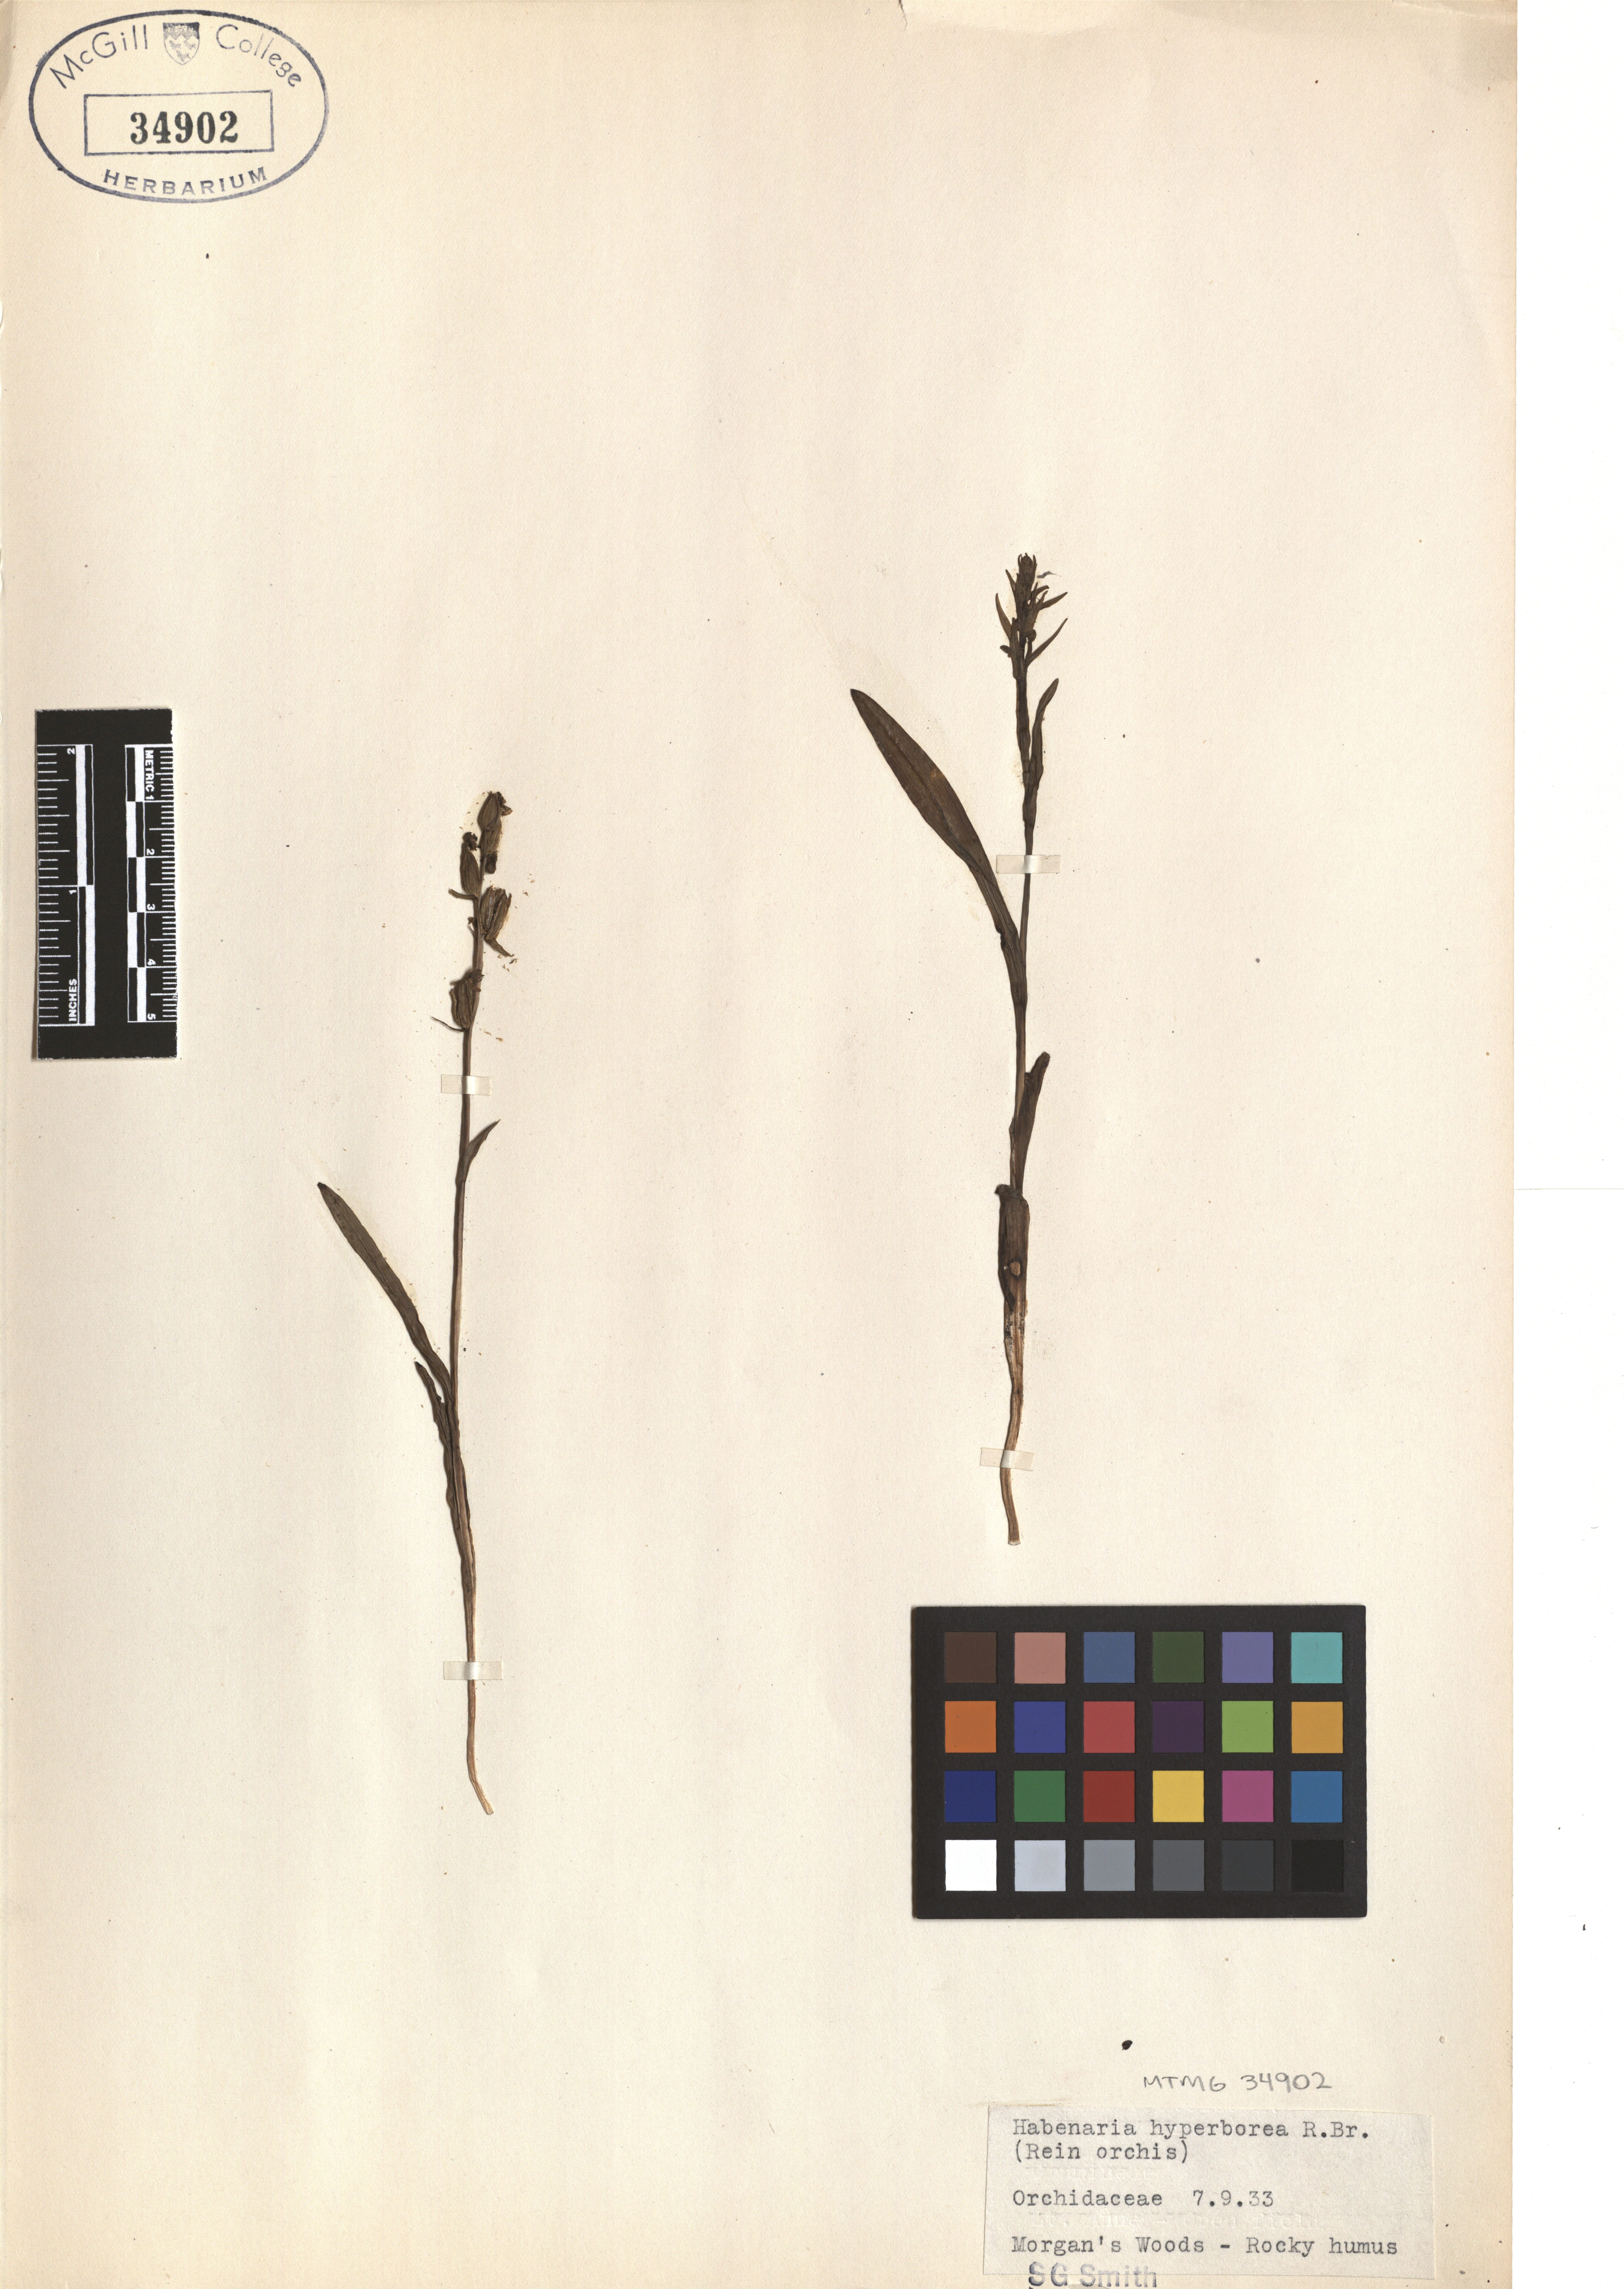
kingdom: Plantae
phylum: Tracheophyta
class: Liliopsida
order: Asparagales
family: Orchidaceae
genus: Platanthera
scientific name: Platanthera hyperborea
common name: Northern green orchid
